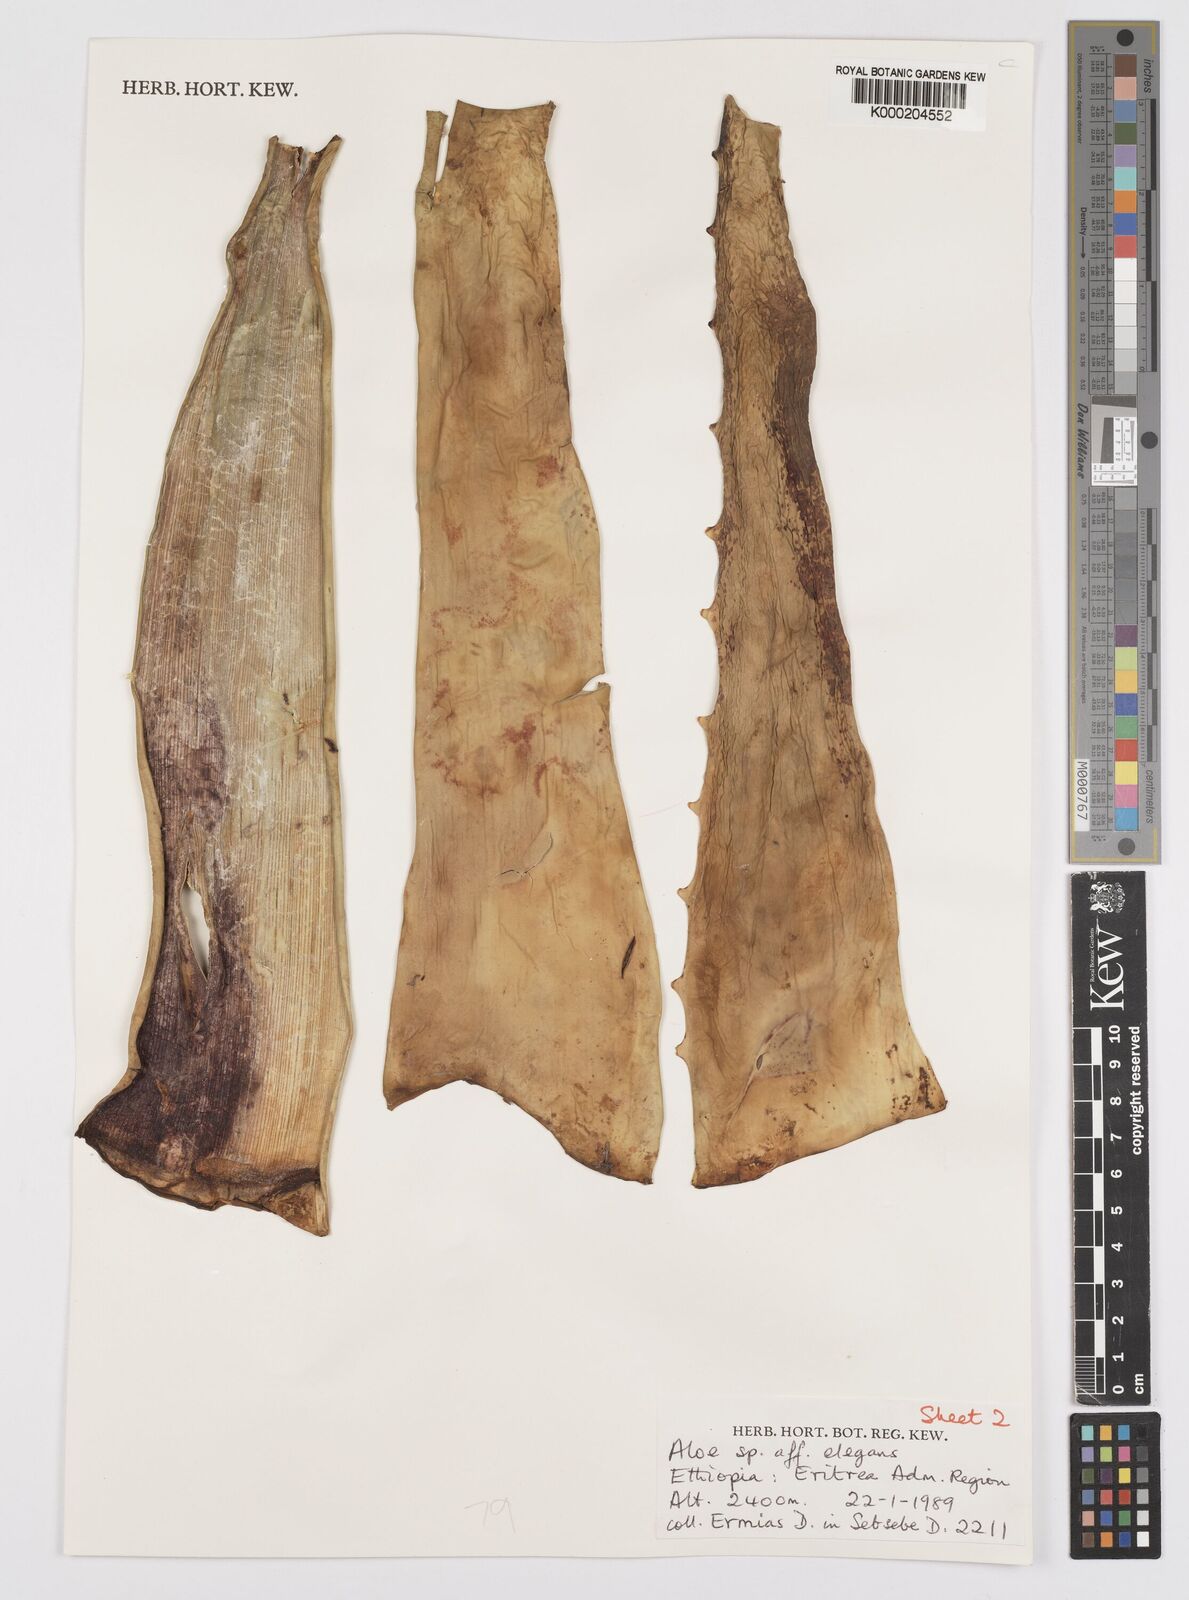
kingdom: Plantae
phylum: Tracheophyta
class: Liliopsida
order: Asparagales
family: Asphodelaceae
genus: Aloe
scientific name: Aloe elegans
